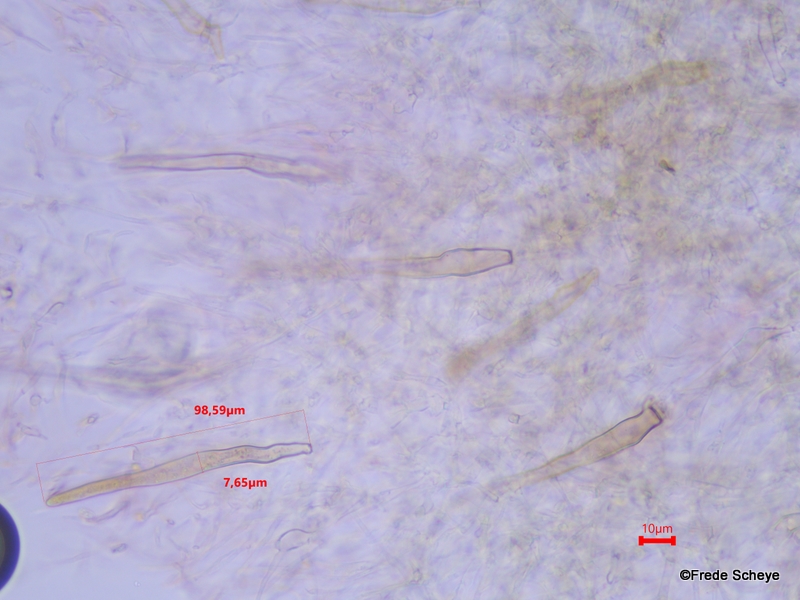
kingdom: Fungi
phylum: Basidiomycota
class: Agaricomycetes
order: Agaricales
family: Physalacriaceae
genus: Flammulina
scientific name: Flammulina velutipes
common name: gul fløjlsfod
